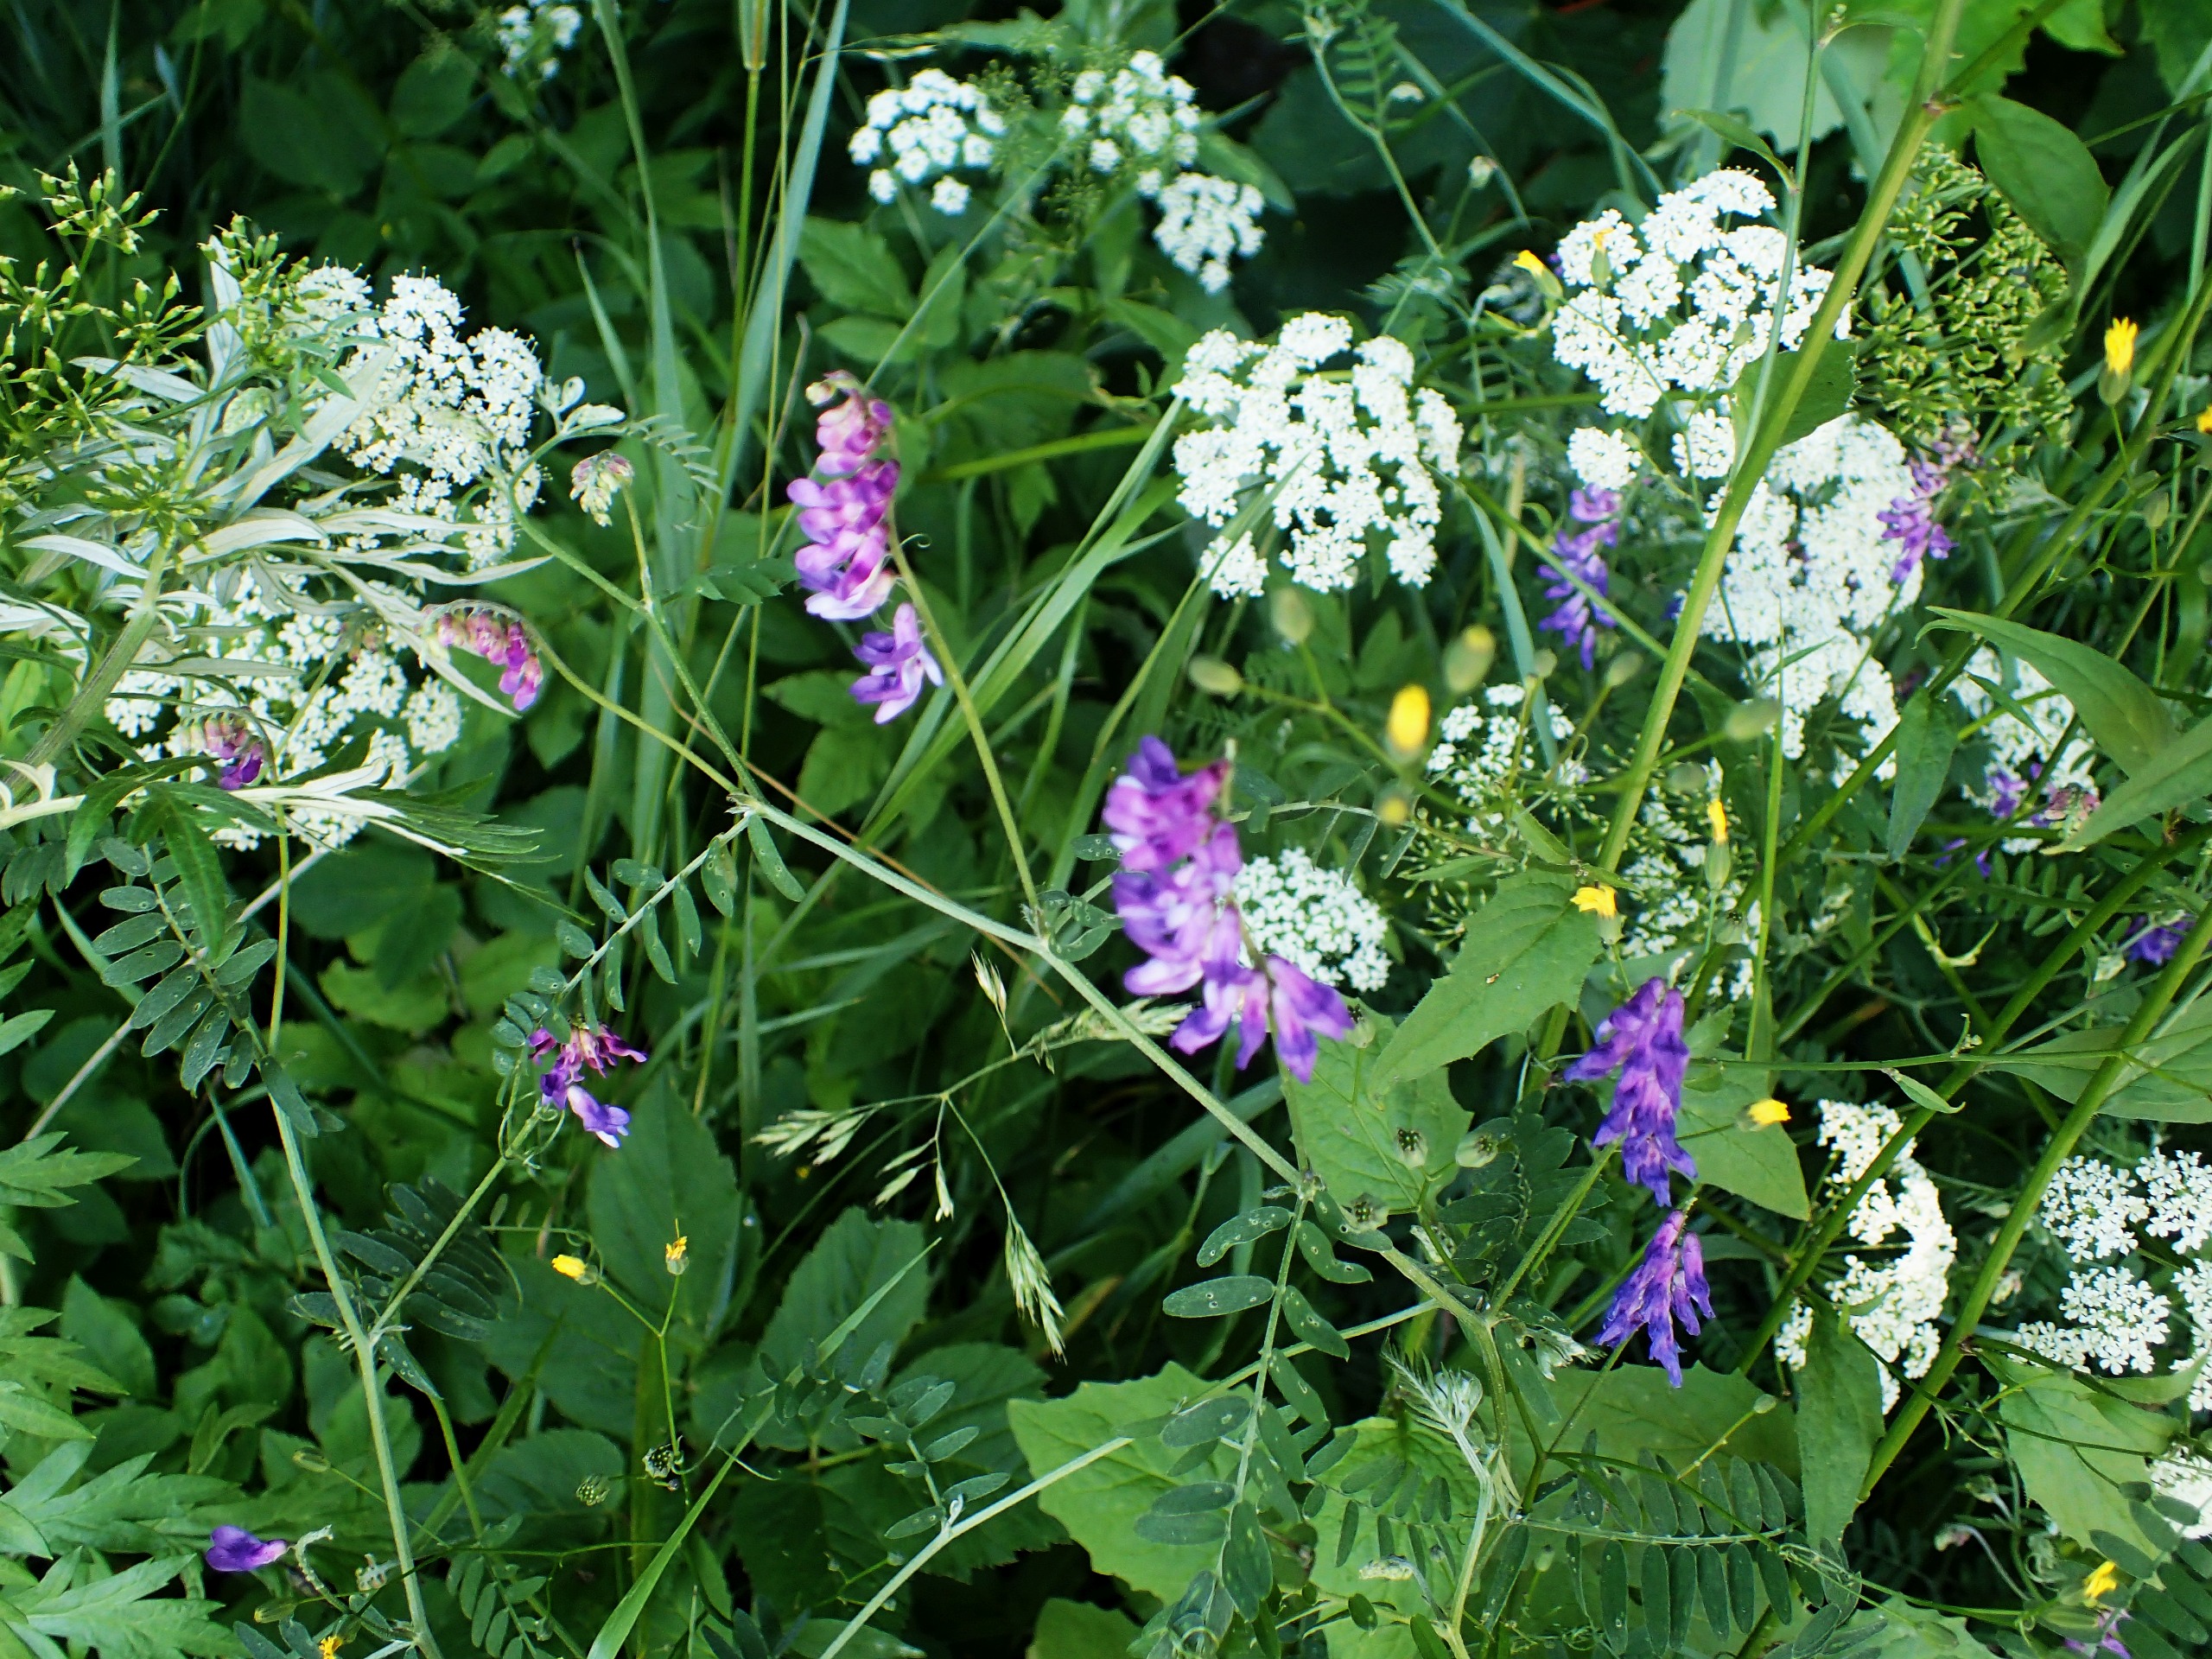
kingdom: Plantae
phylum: Tracheophyta
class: Magnoliopsida
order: Fabales
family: Fabaceae
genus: Vicia
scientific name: Vicia cracca
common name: Muse-vikke
